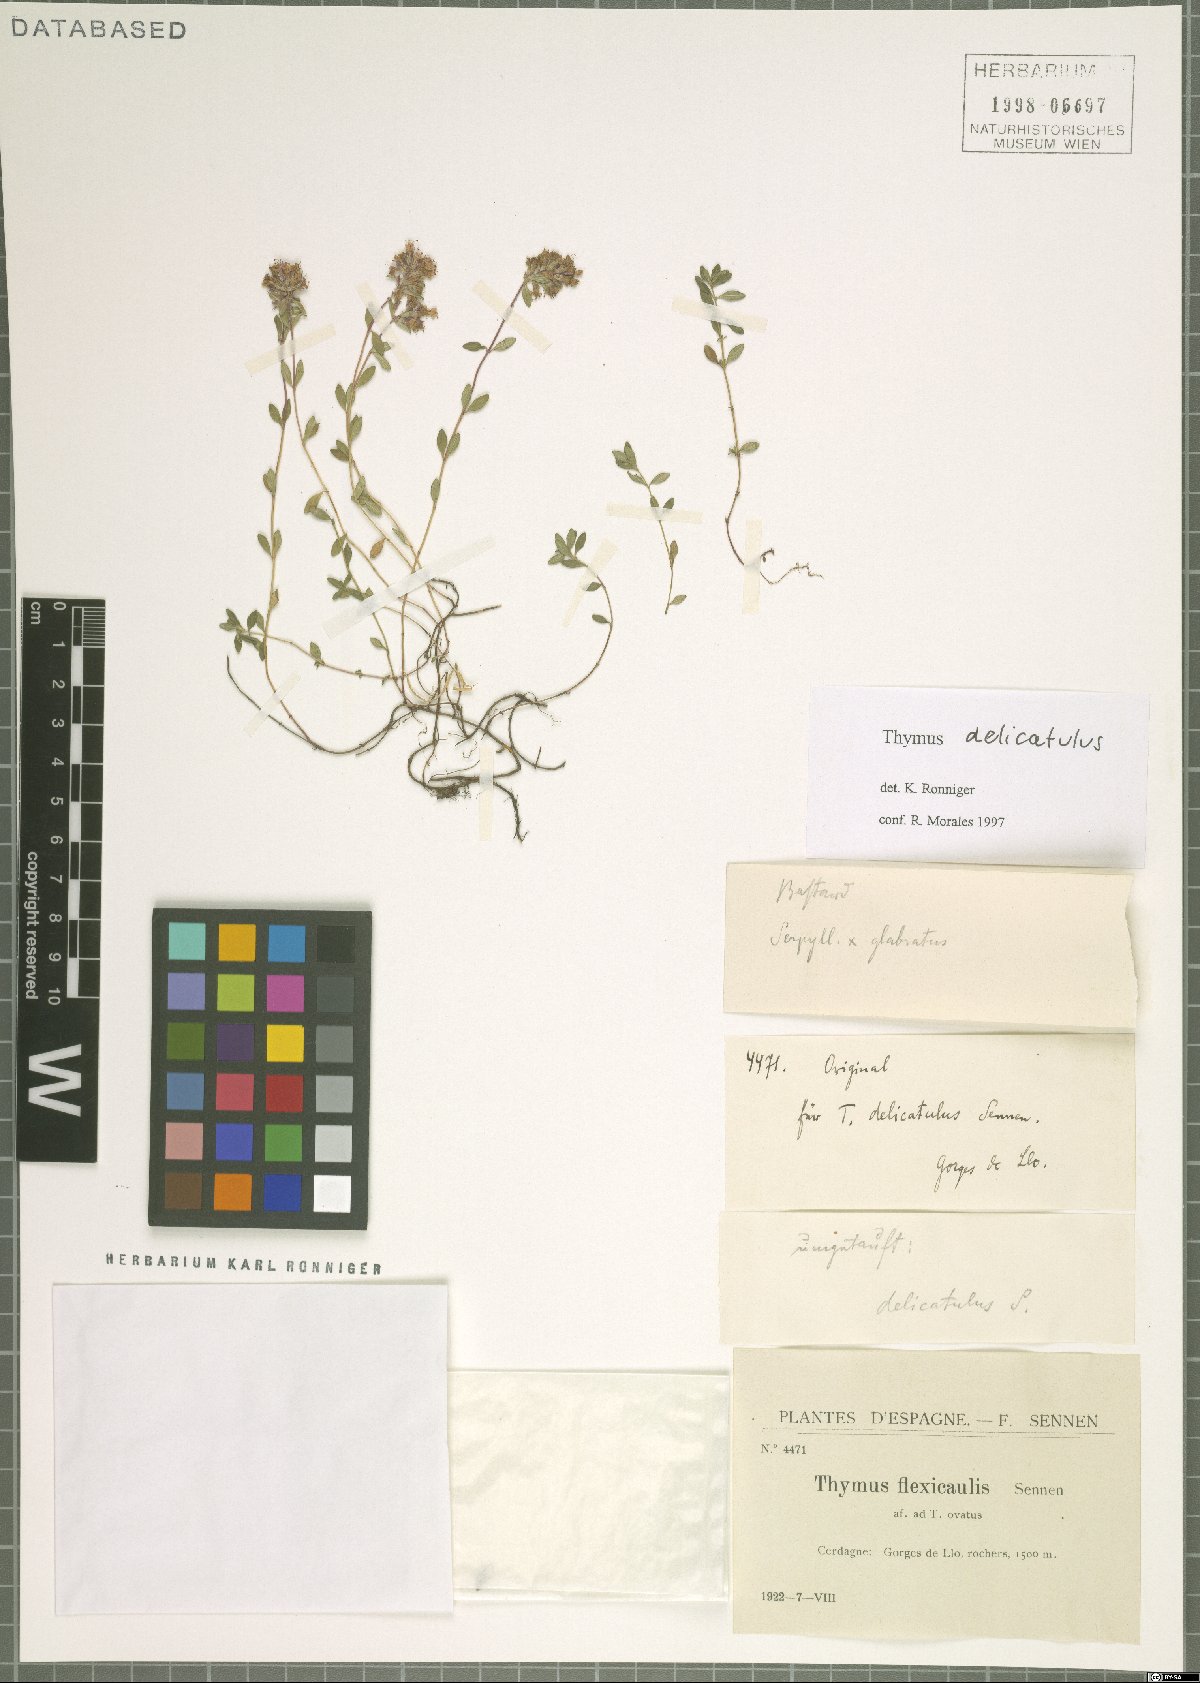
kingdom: Plantae
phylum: Tracheophyta
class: Magnoliopsida
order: Lamiales
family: Lamiaceae
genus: Thymus
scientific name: Thymus pulegioides
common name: Large thyme
